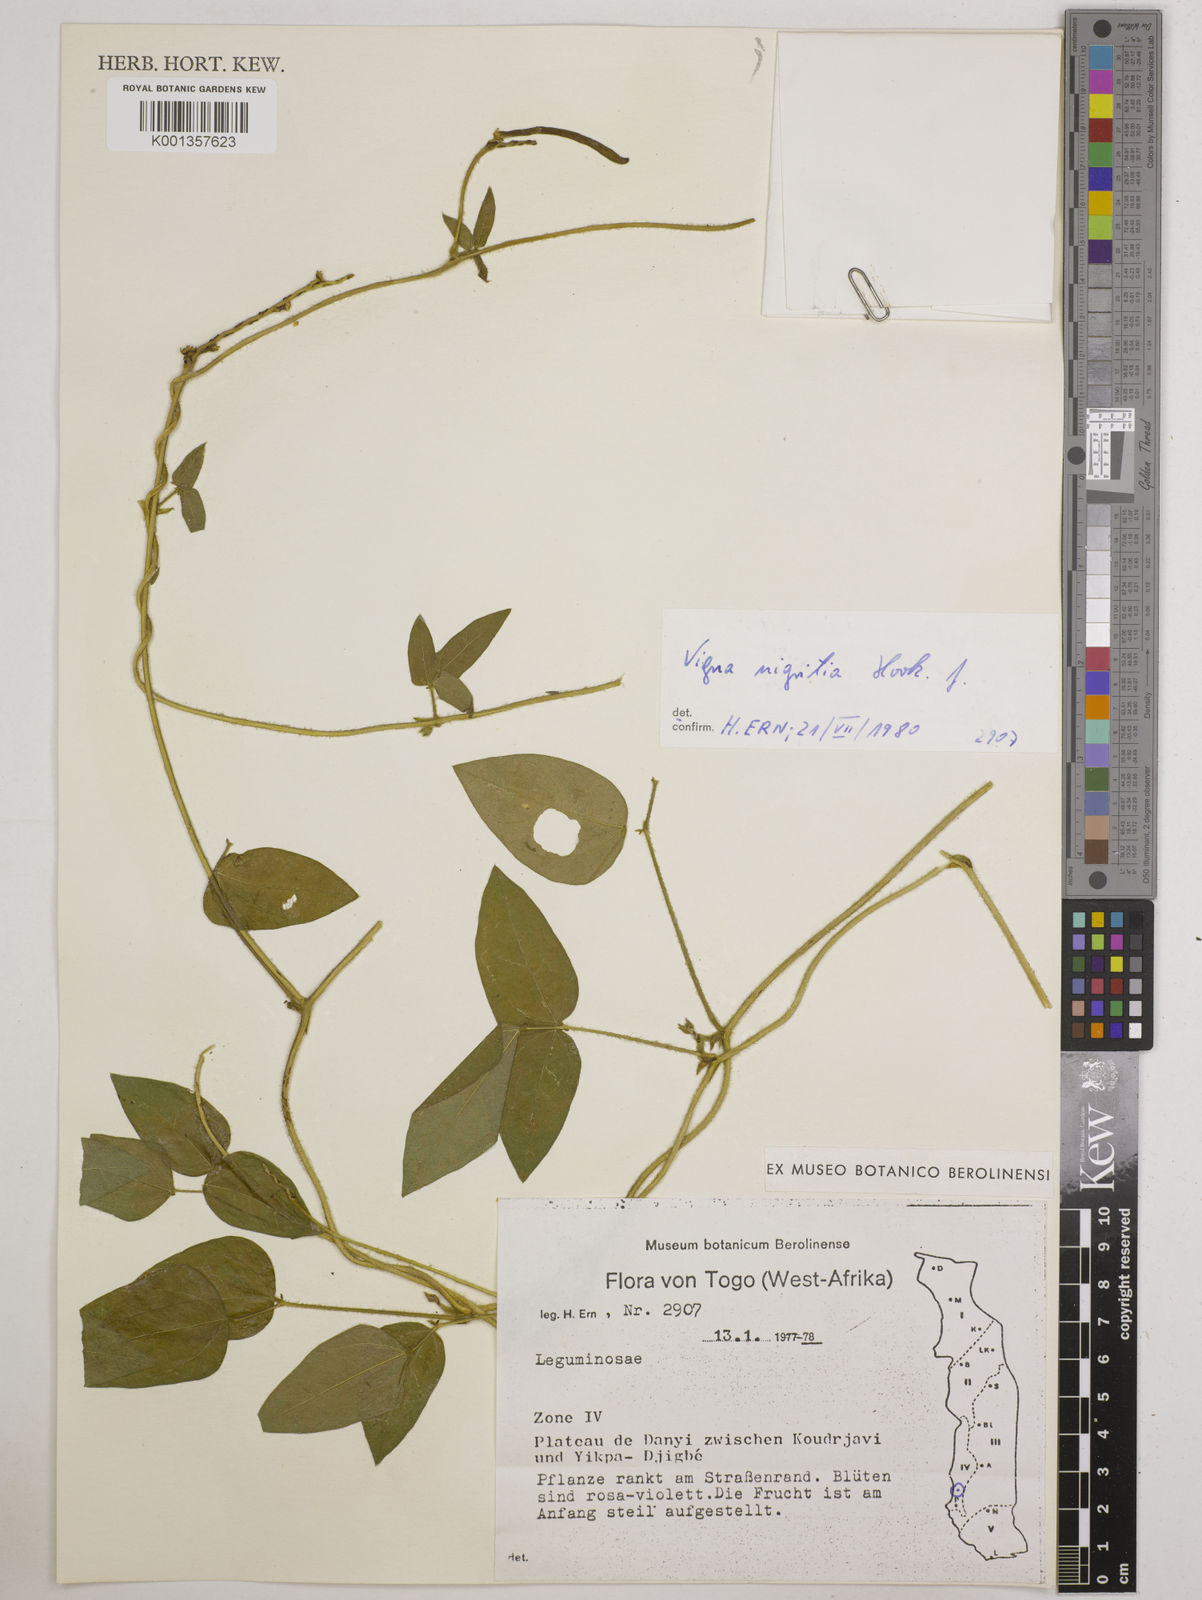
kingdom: Plantae
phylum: Tracheophyta
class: Magnoliopsida
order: Fabales
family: Fabaceae
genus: Vigna
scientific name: Vigna nigritia
